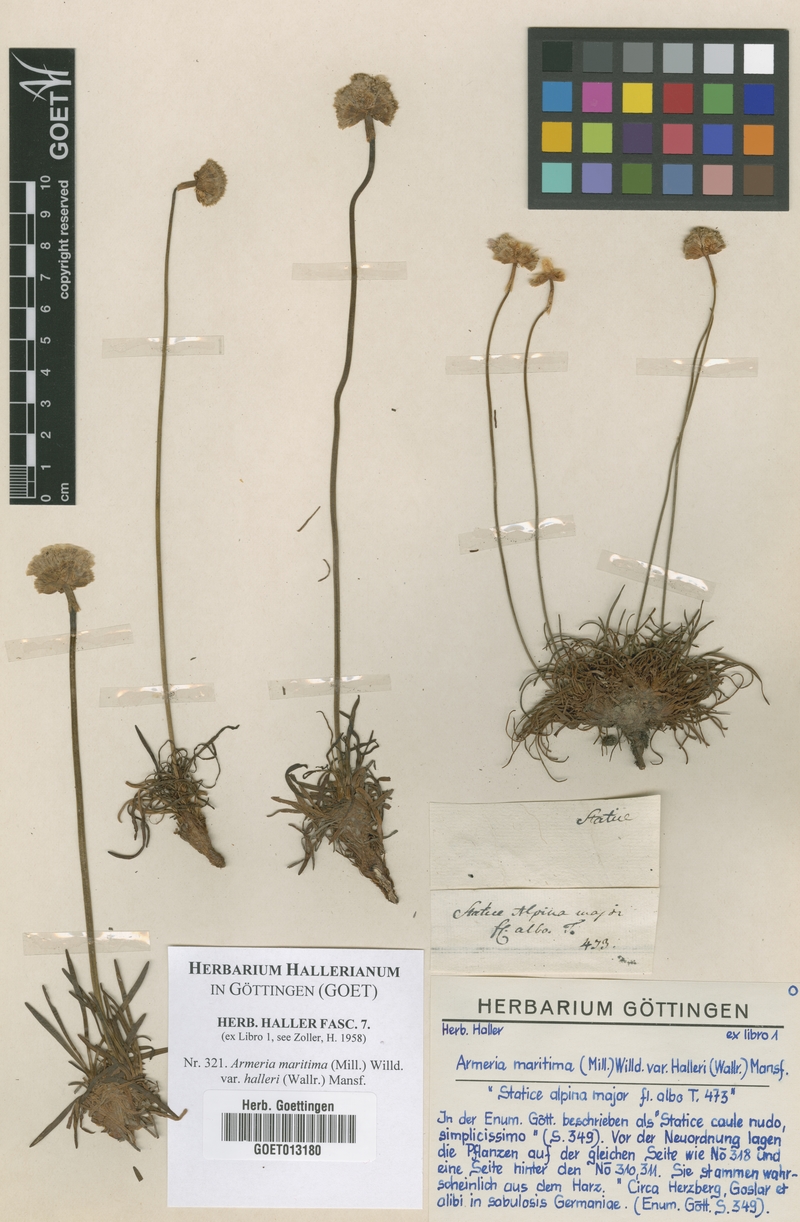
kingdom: Plantae
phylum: Tracheophyta
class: Magnoliopsida
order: Caryophyllales
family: Plumbaginaceae
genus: Armeria
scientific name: Armeria maritima
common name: Thrift
